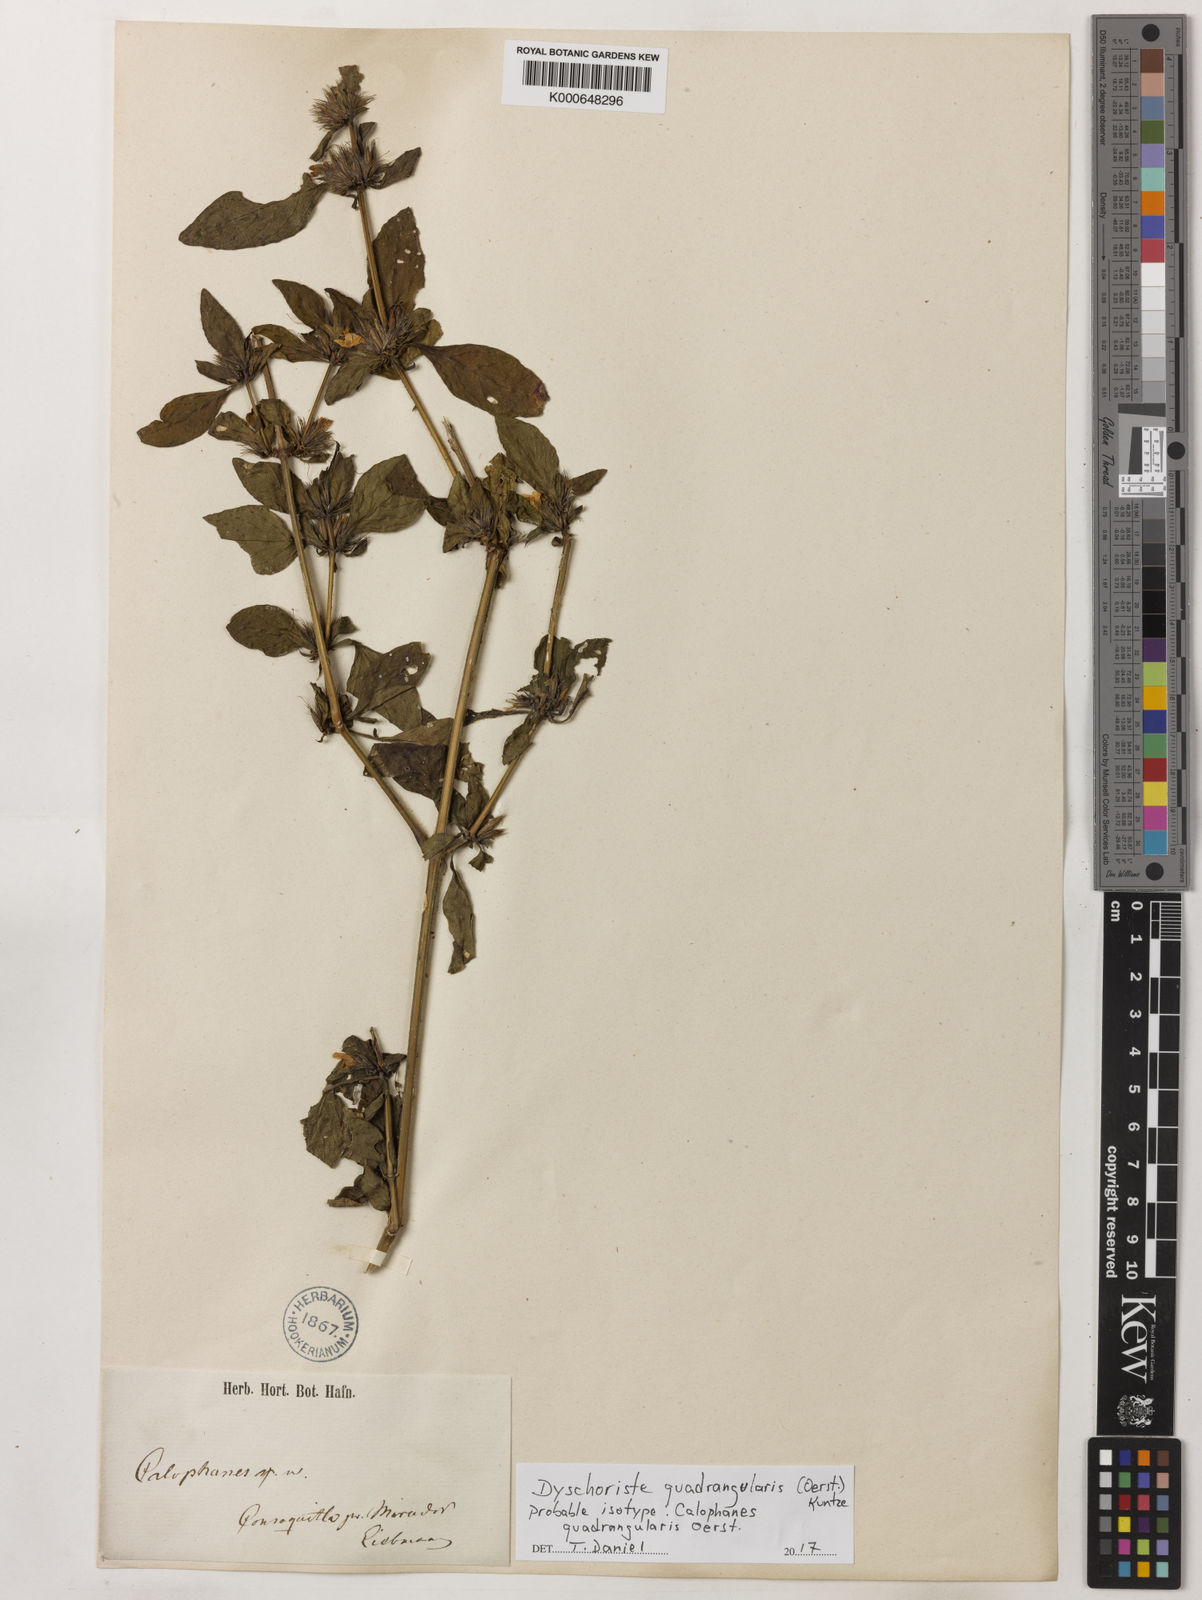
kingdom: Plantae
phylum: Tracheophyta
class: Magnoliopsida
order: Lamiales
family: Acanthaceae
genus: Dyschoriste
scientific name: Dyschoriste quadrangularis
